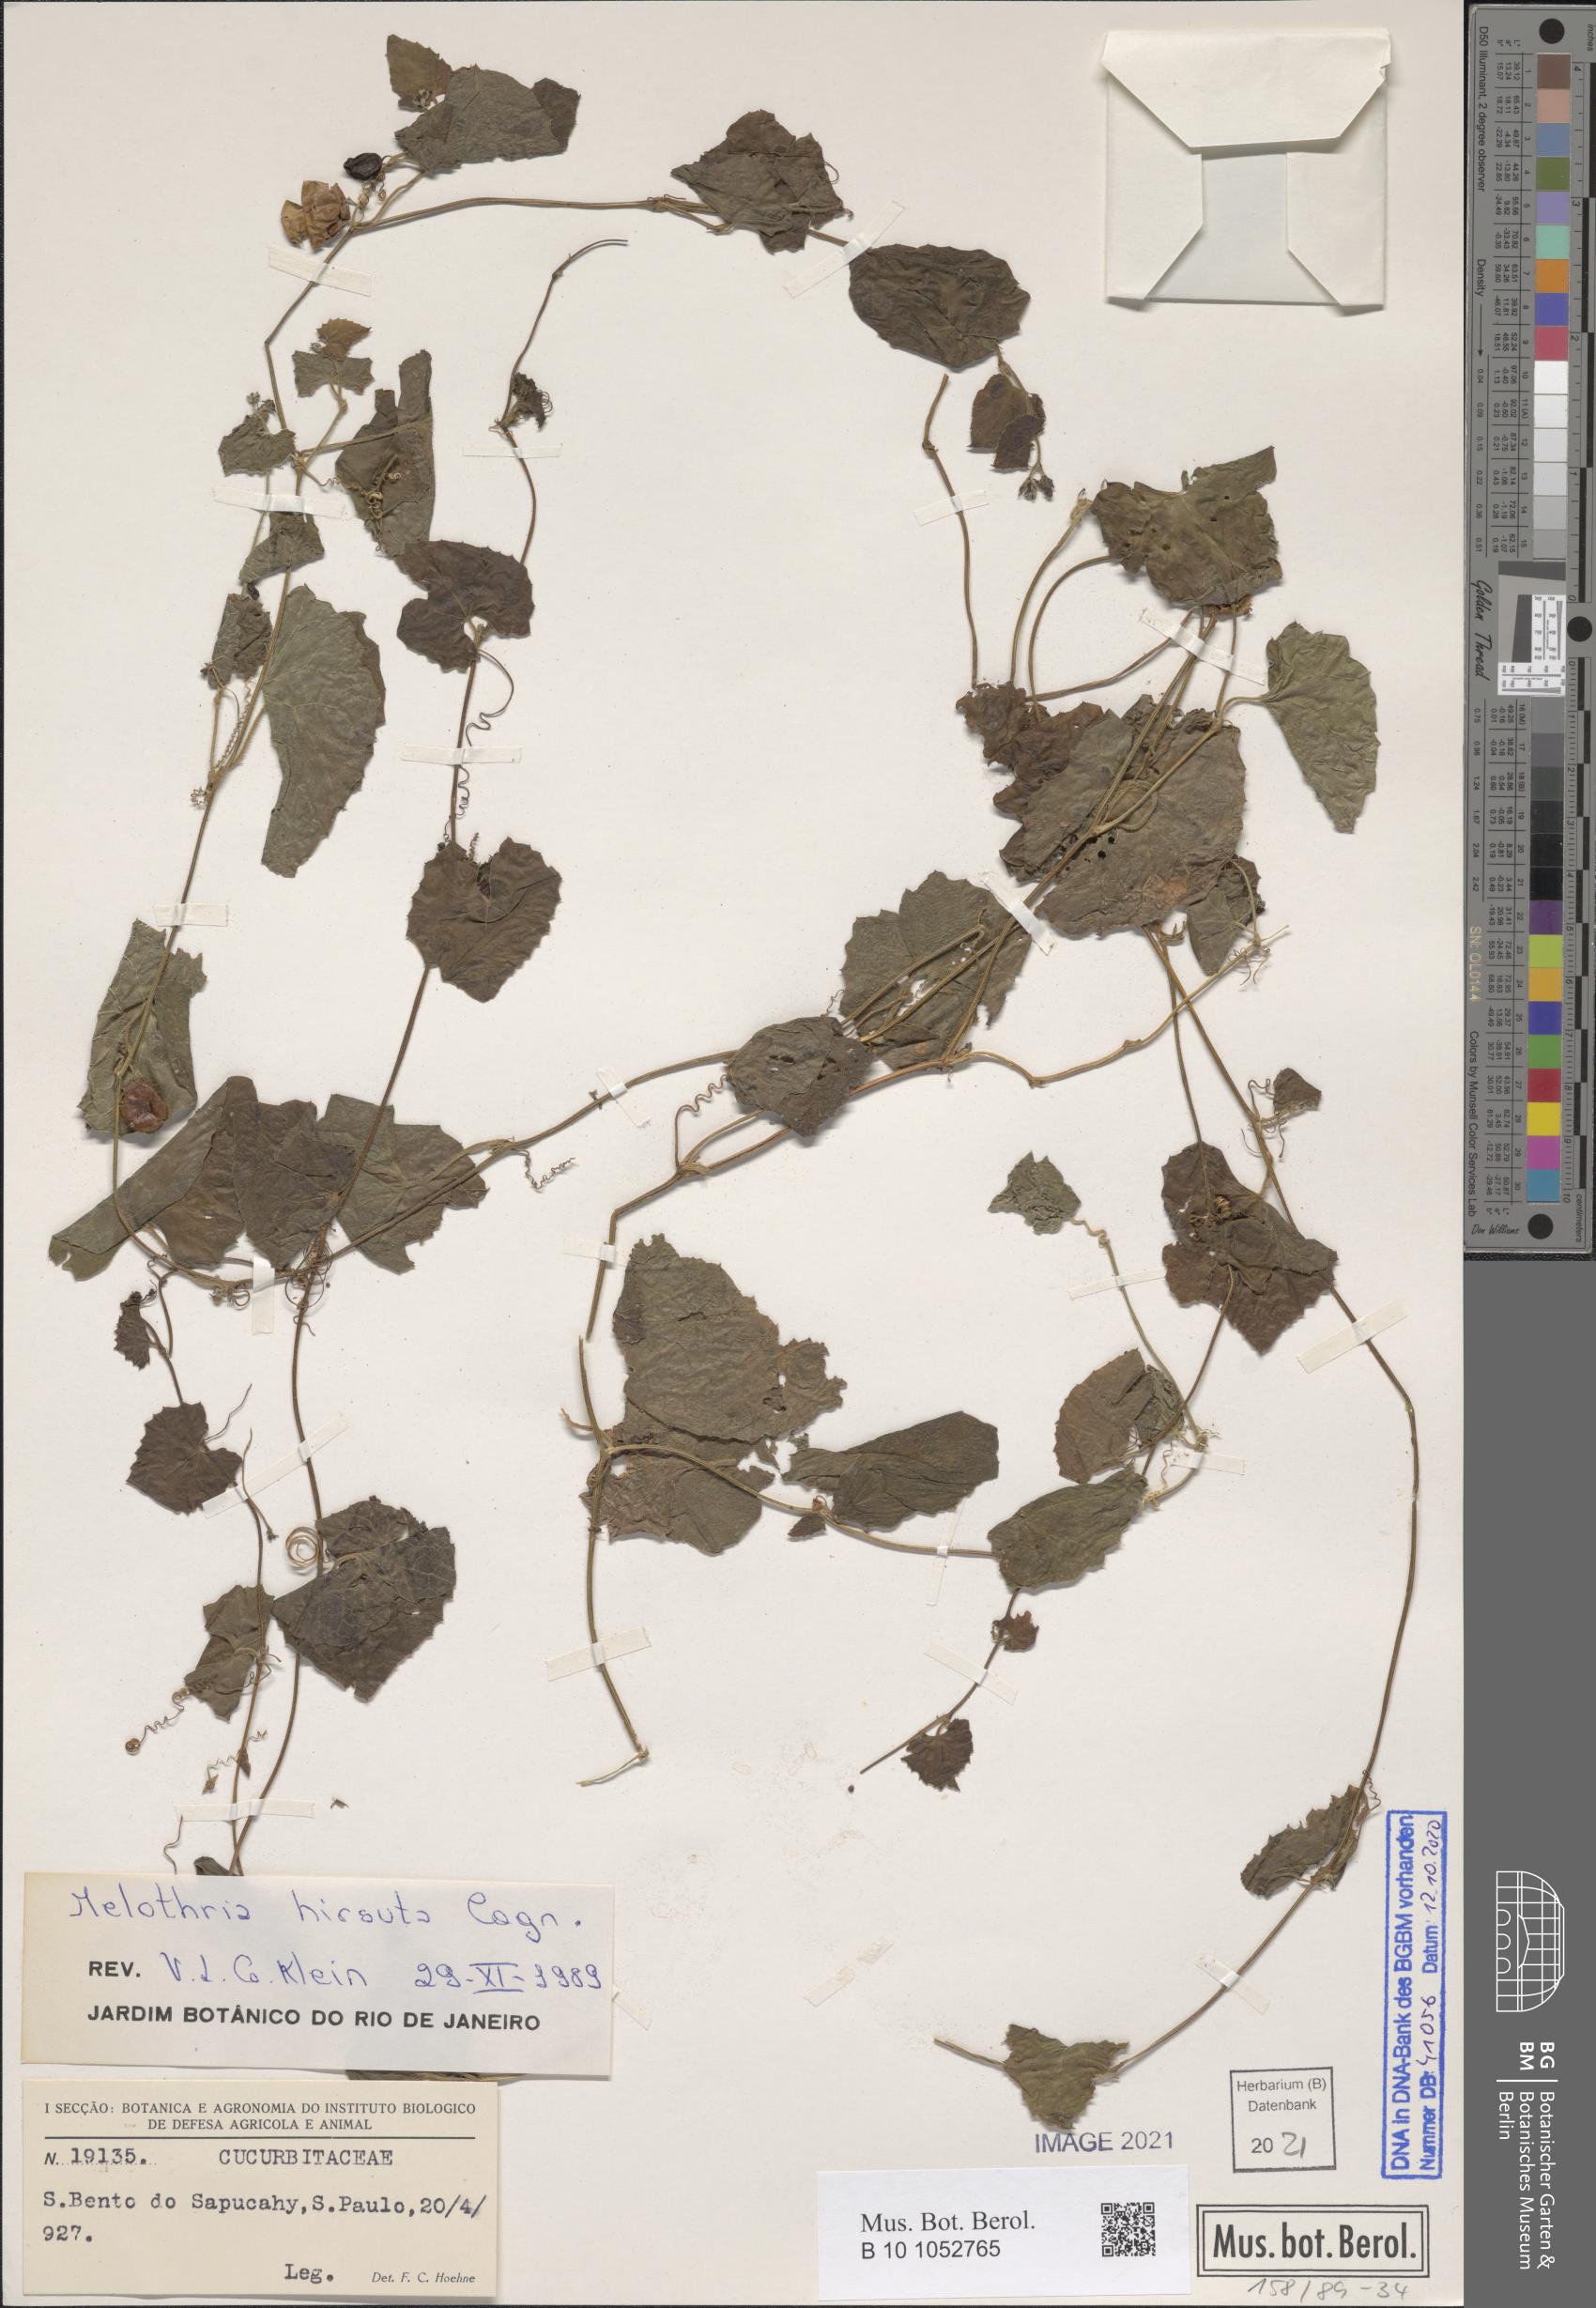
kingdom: Plantae
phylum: Tracheophyta
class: Magnoliopsida
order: Cucurbitales
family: Cucurbitaceae
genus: Melothria
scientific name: Melothria hirsuta
